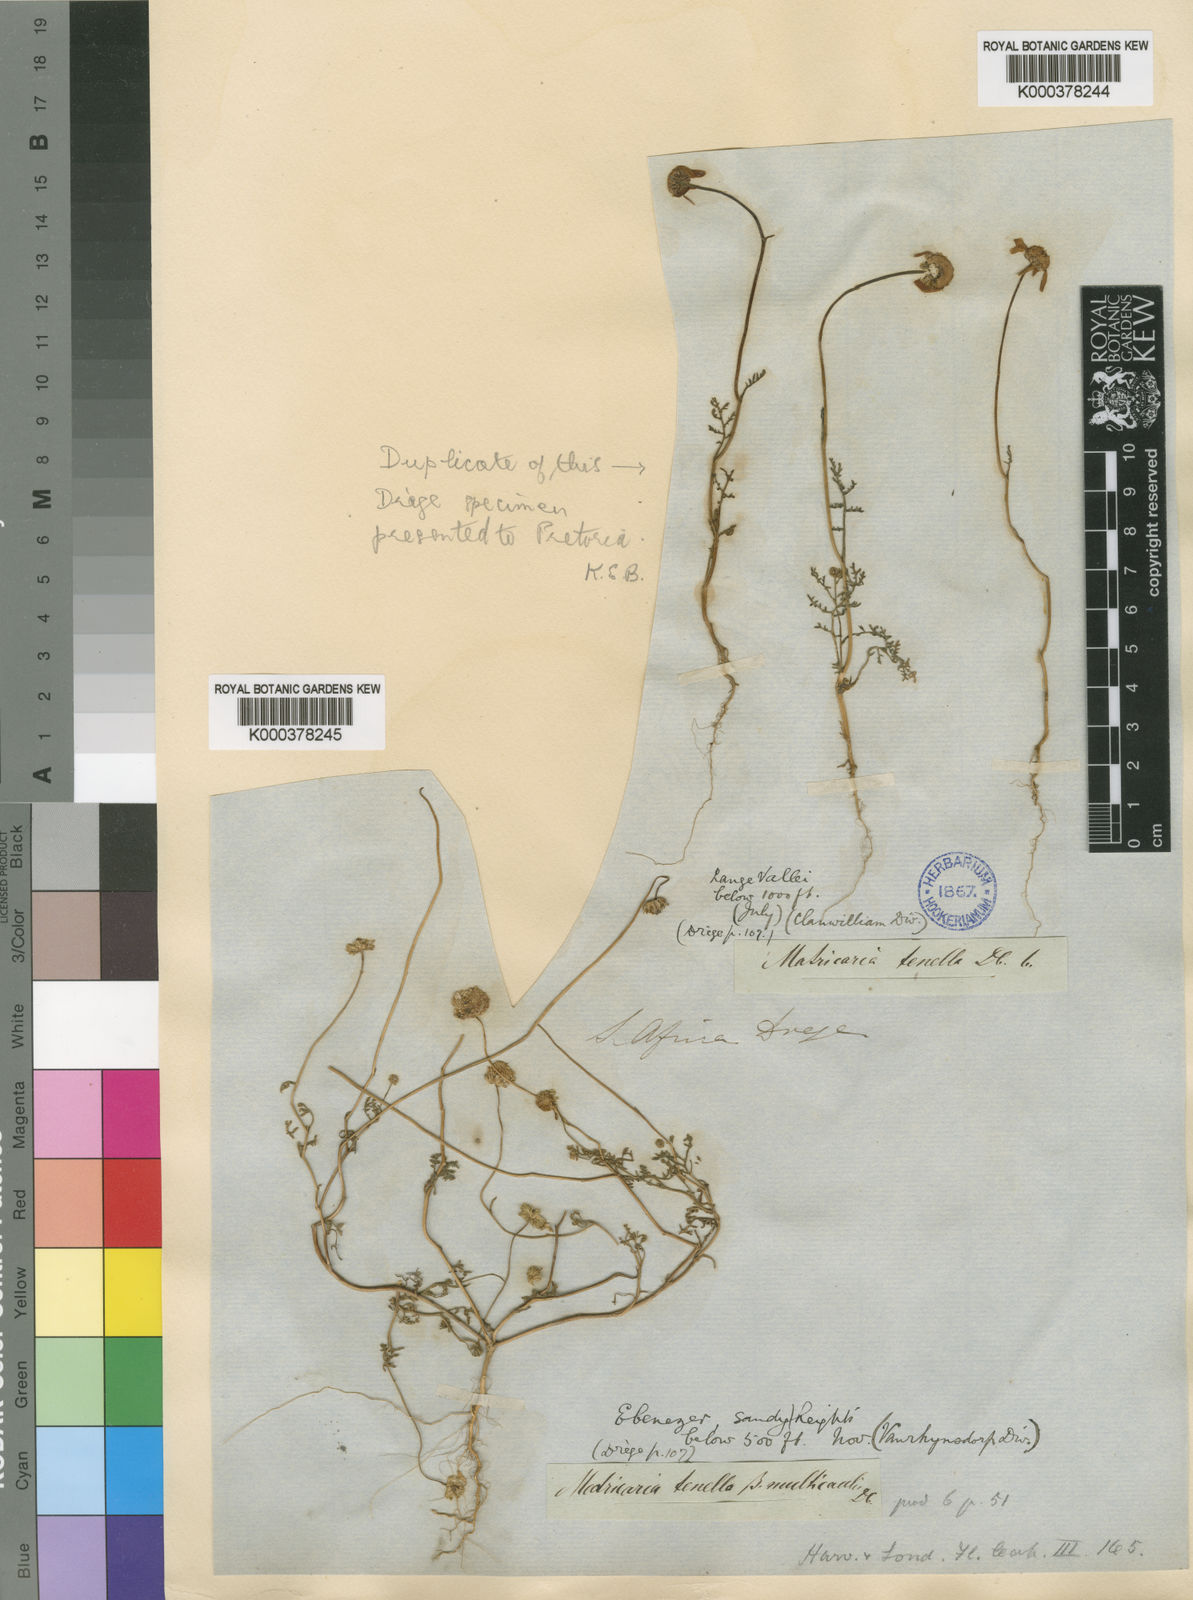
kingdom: Plantae
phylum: Tracheophyta
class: Magnoliopsida
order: Asterales
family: Asteraceae
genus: Foveolina
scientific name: Foveolina
